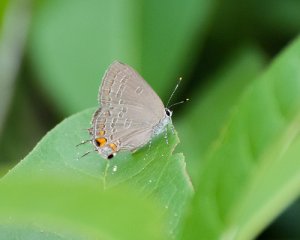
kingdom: Animalia
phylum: Arthropoda
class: Insecta
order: Lepidoptera
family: Lycaenidae
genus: Strymon
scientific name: Strymon kingi
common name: King's Hairstreak
